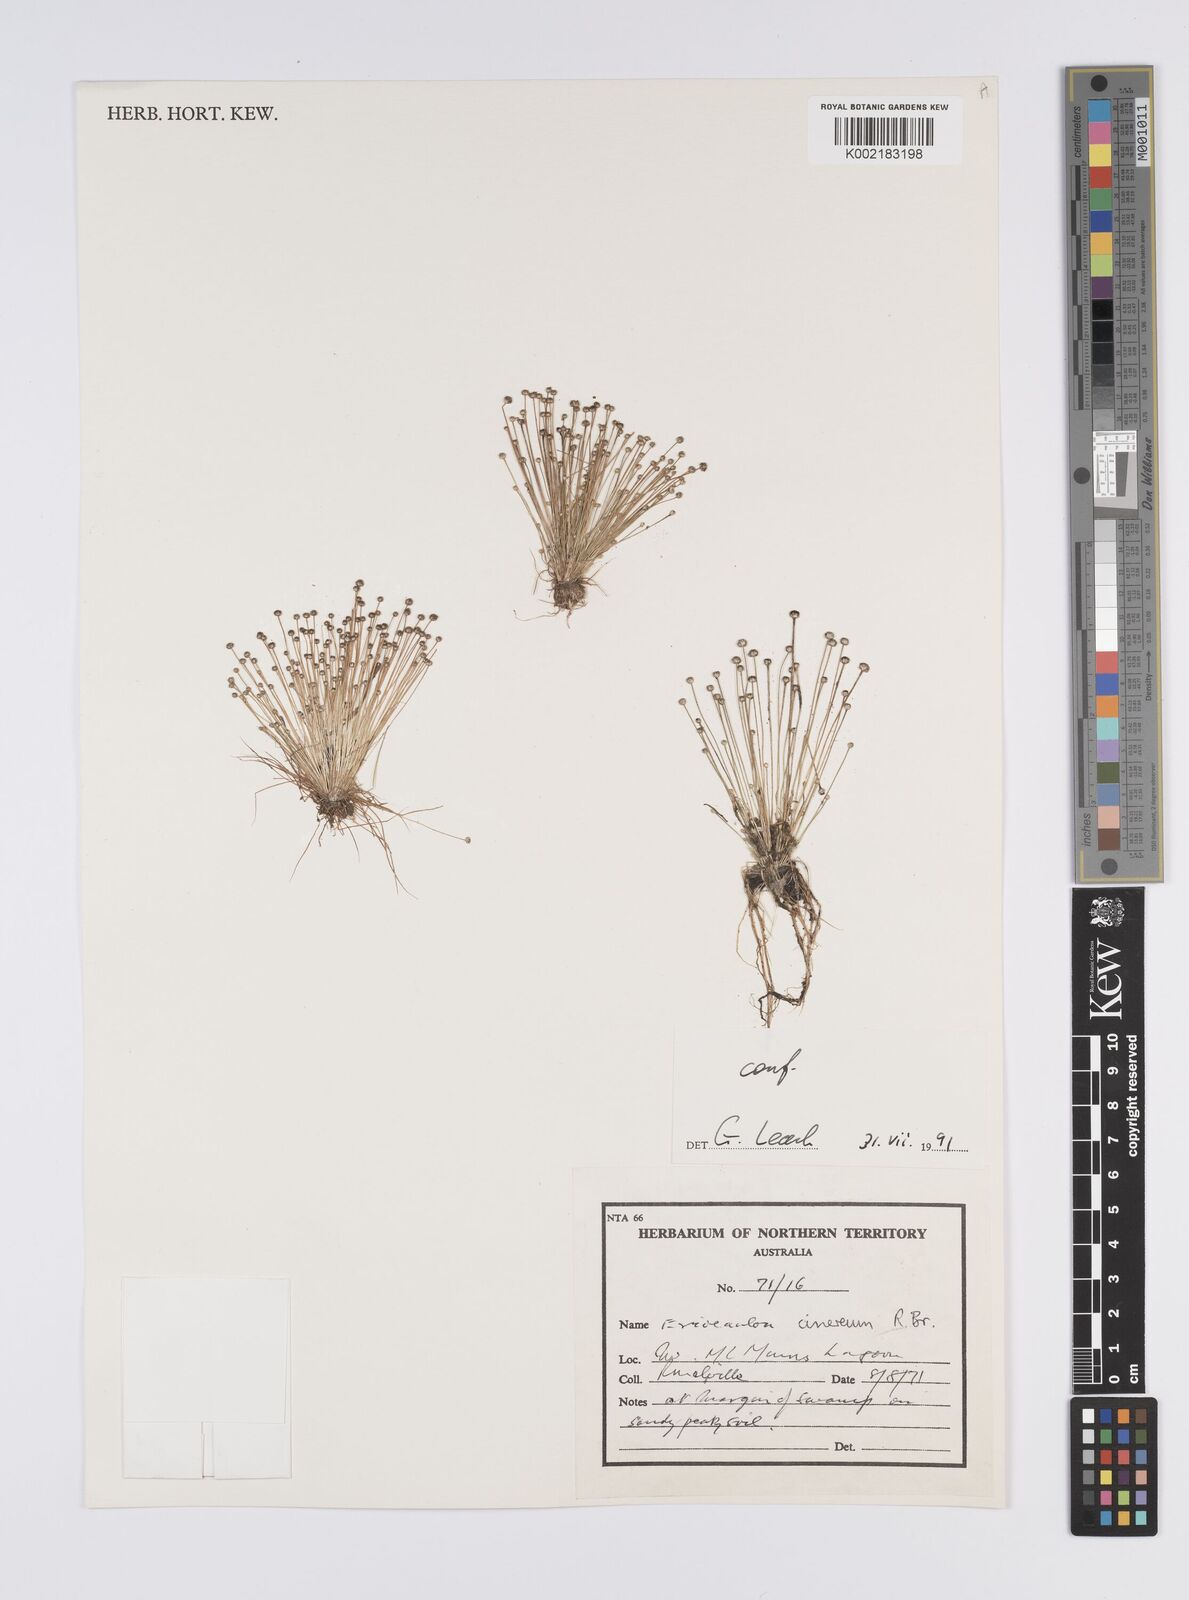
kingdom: Plantae
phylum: Tracheophyta
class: Liliopsida
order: Poales
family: Eriocaulaceae
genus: Eriocaulon
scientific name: Eriocaulon cinereum
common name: Ashy pipewort
